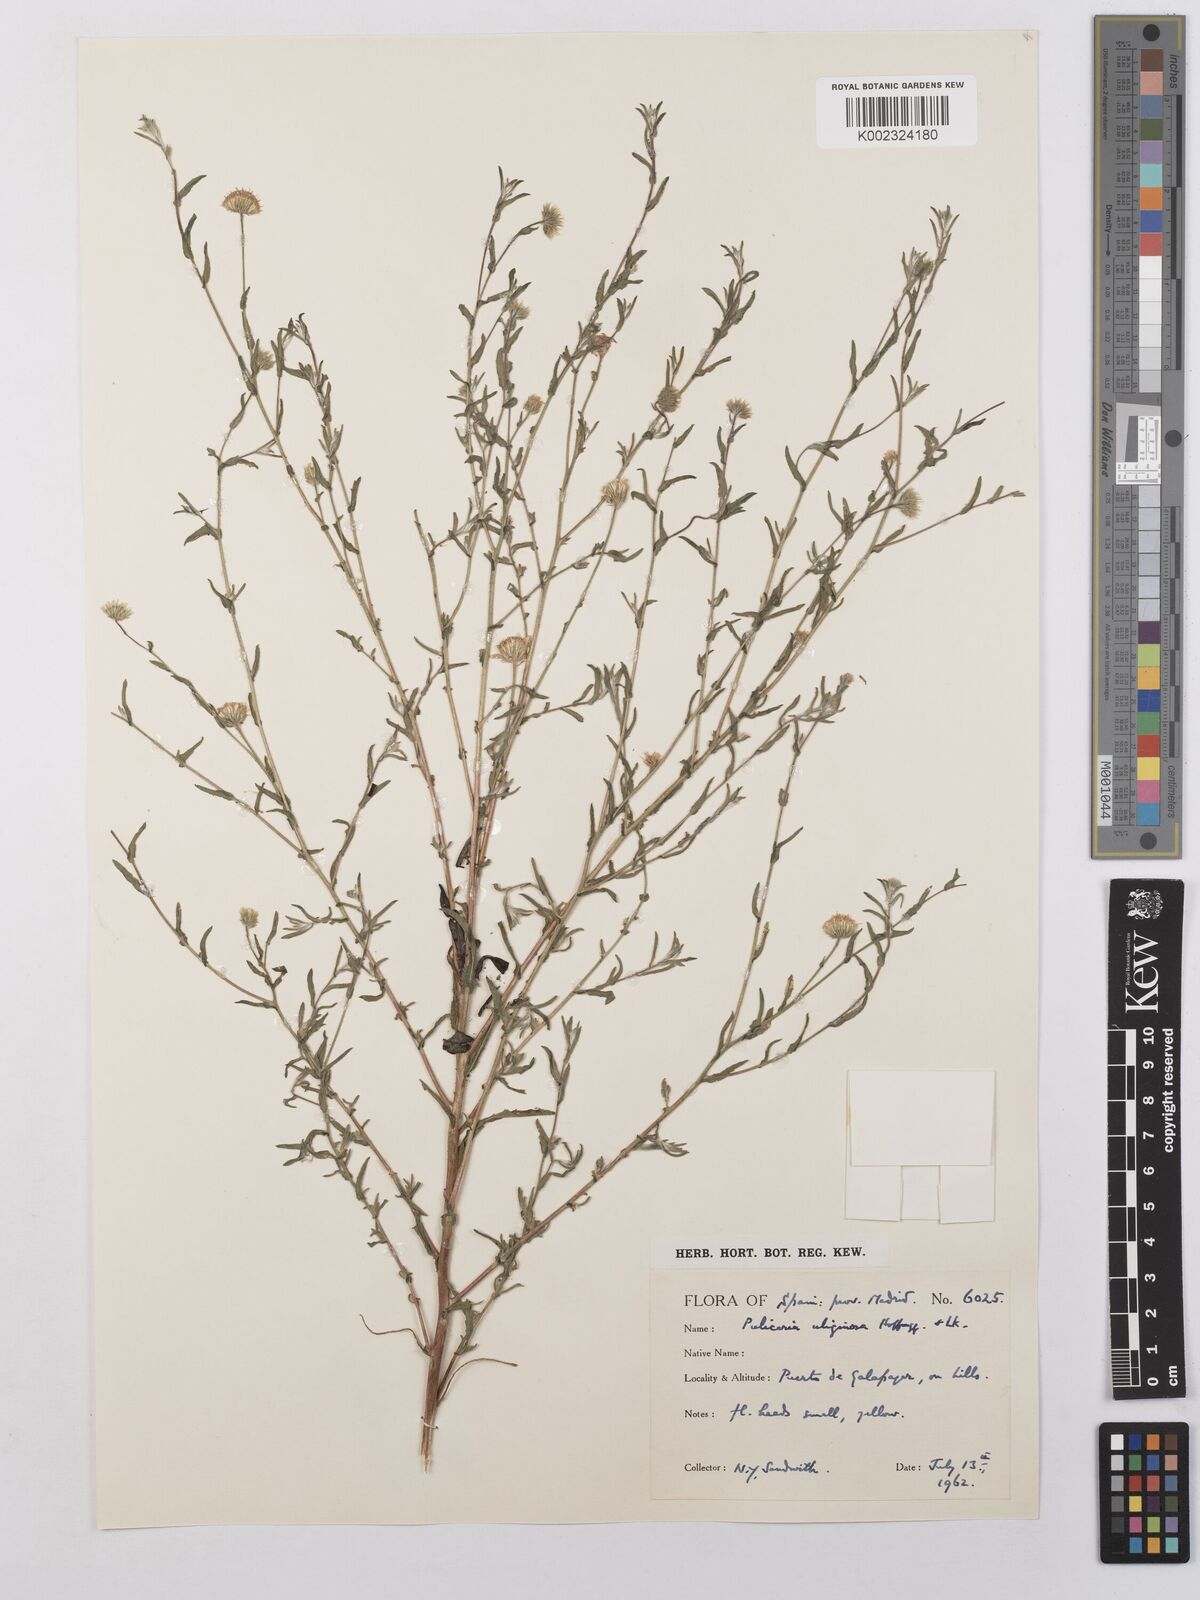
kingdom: Plantae
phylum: Tracheophyta
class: Magnoliopsida
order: Asterales
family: Asteraceae
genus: Pulicaria
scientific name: Pulicaria arabica
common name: Ladies' false fleabane
